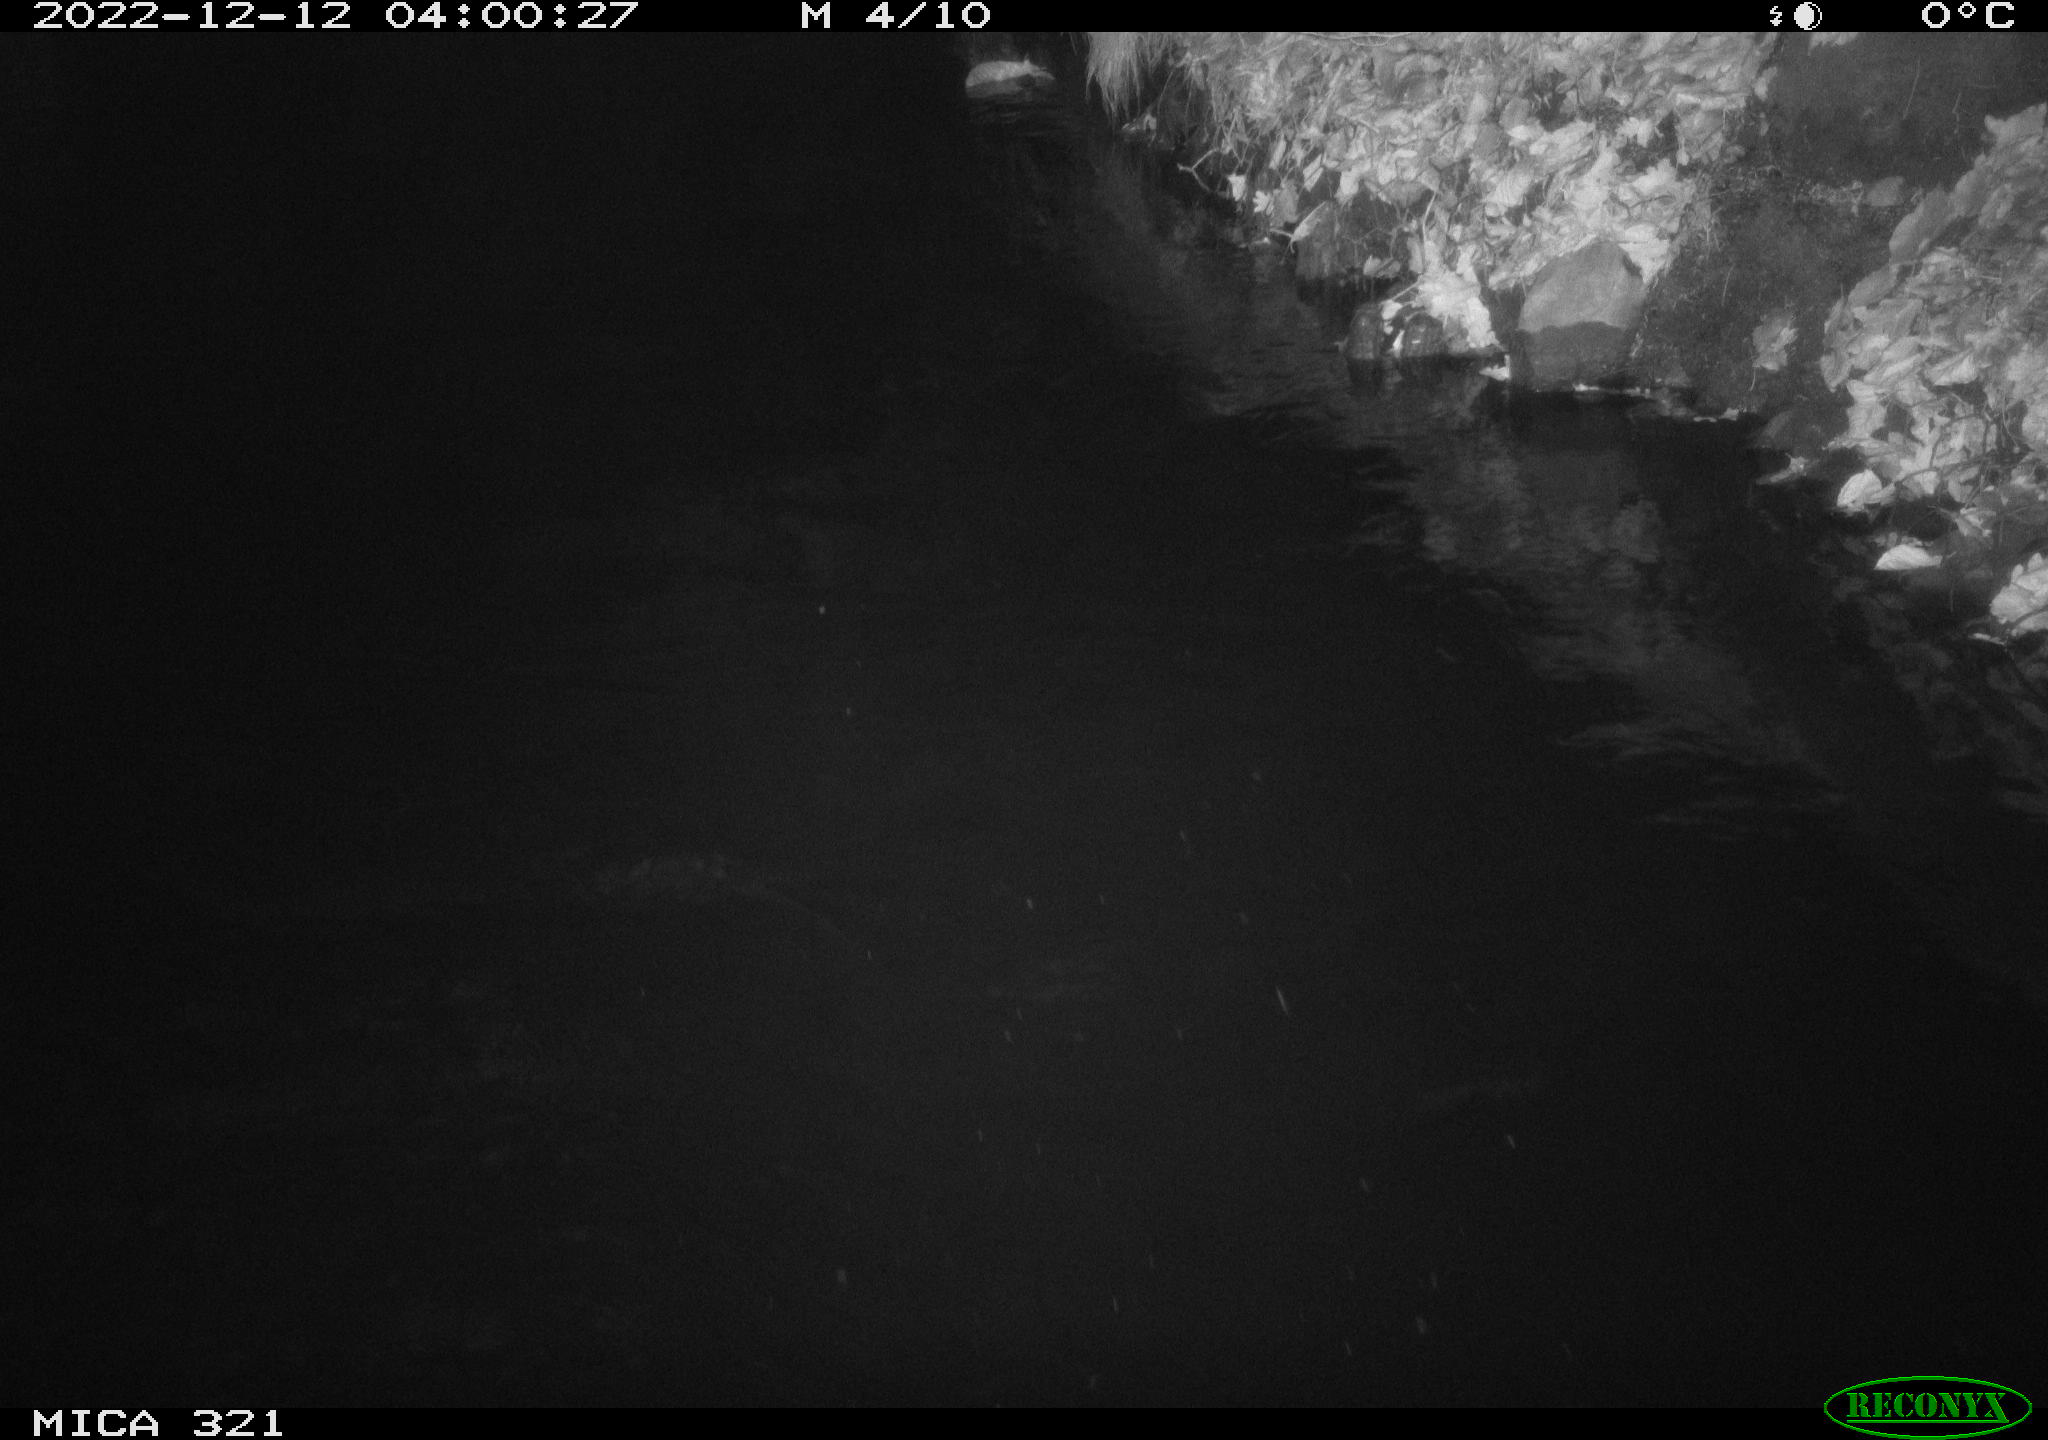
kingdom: Animalia
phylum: Chordata
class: Aves
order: Anseriformes
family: Anatidae
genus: Anas
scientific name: Anas
